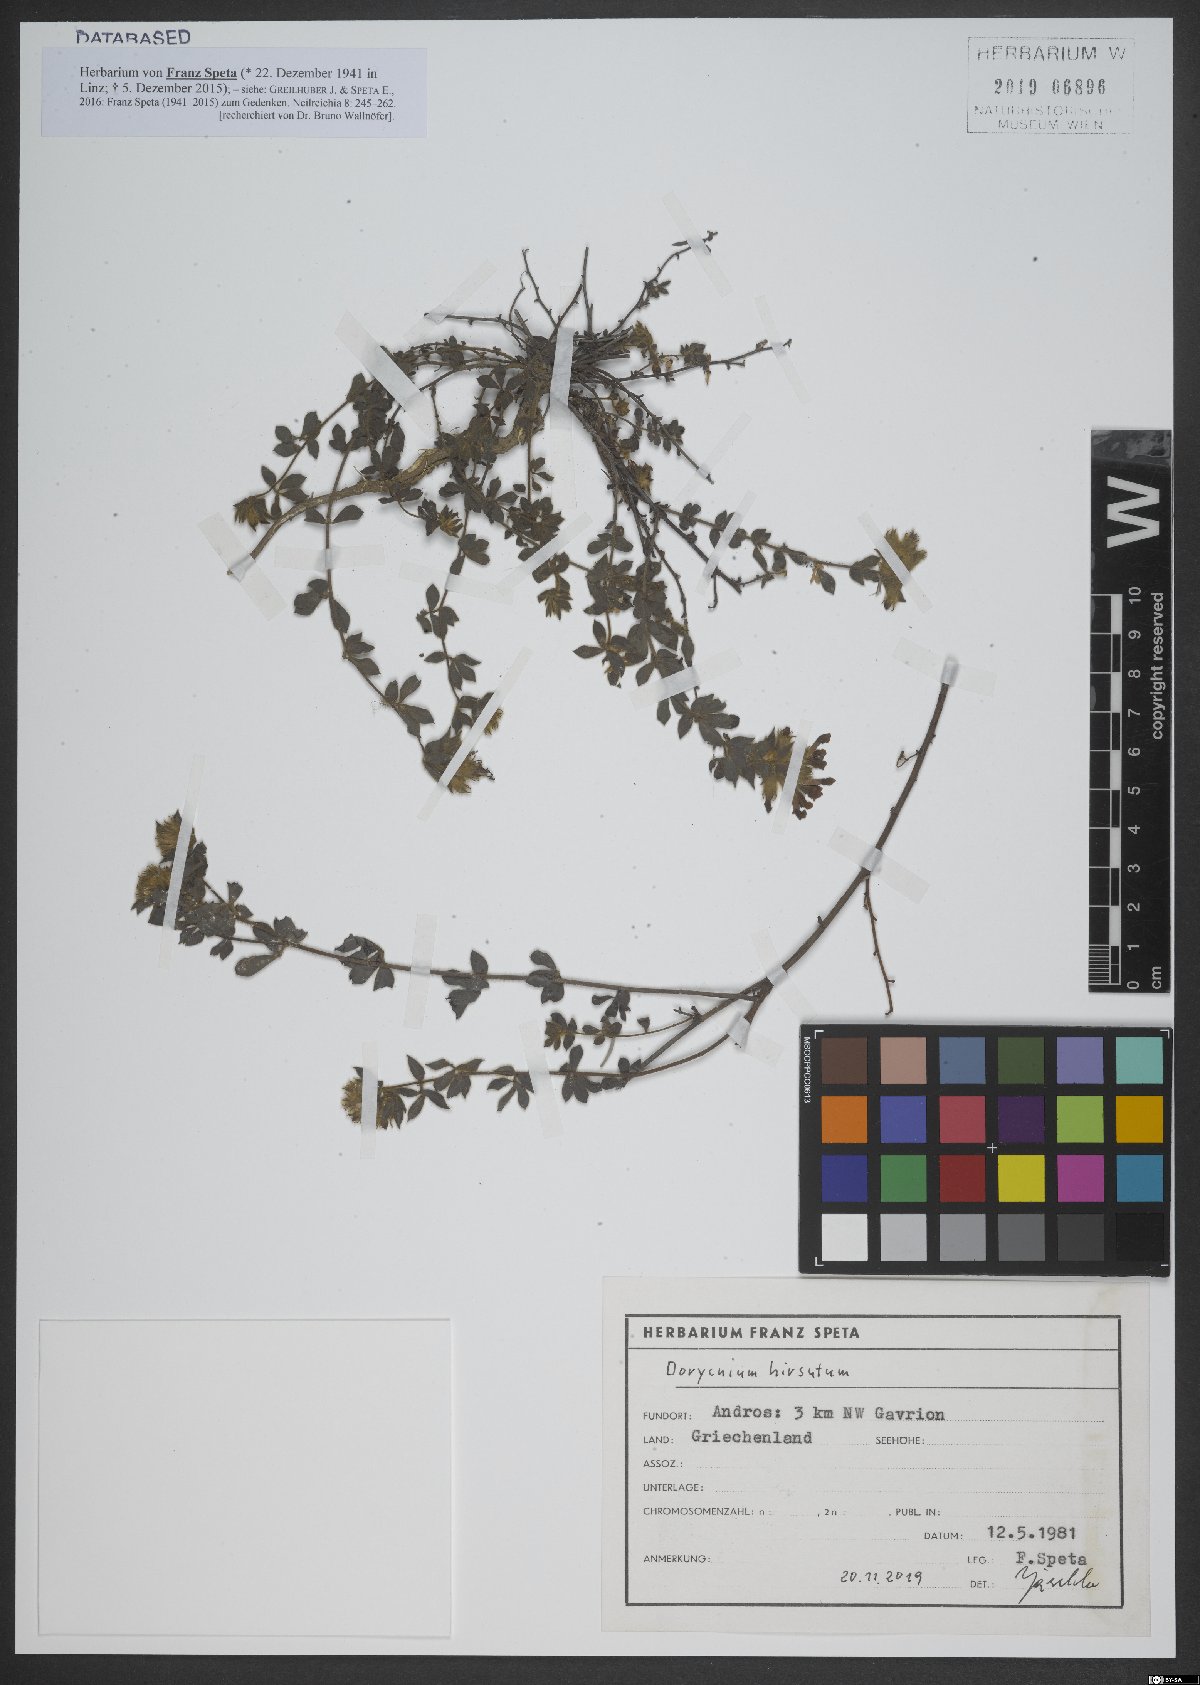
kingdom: Plantae
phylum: Tracheophyta
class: Magnoliopsida
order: Fabales
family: Fabaceae
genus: Lotus
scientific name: Lotus hirsutus
